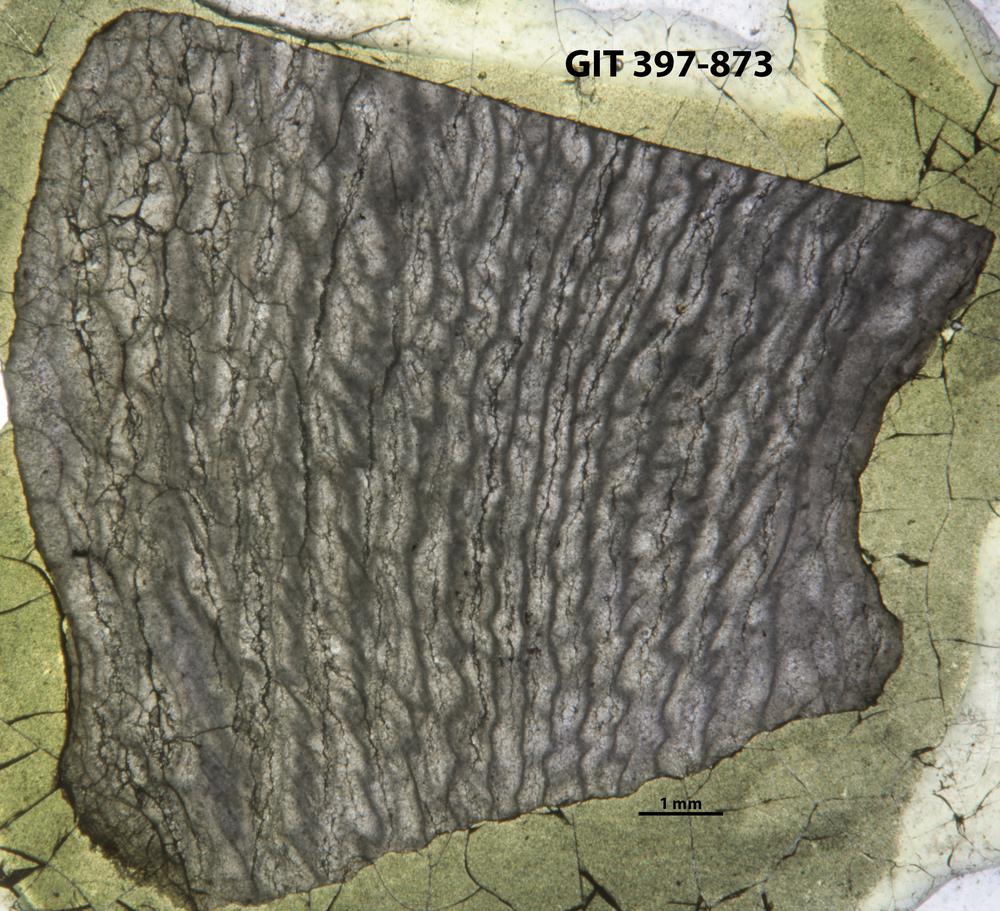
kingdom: Animalia
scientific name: Animalia
